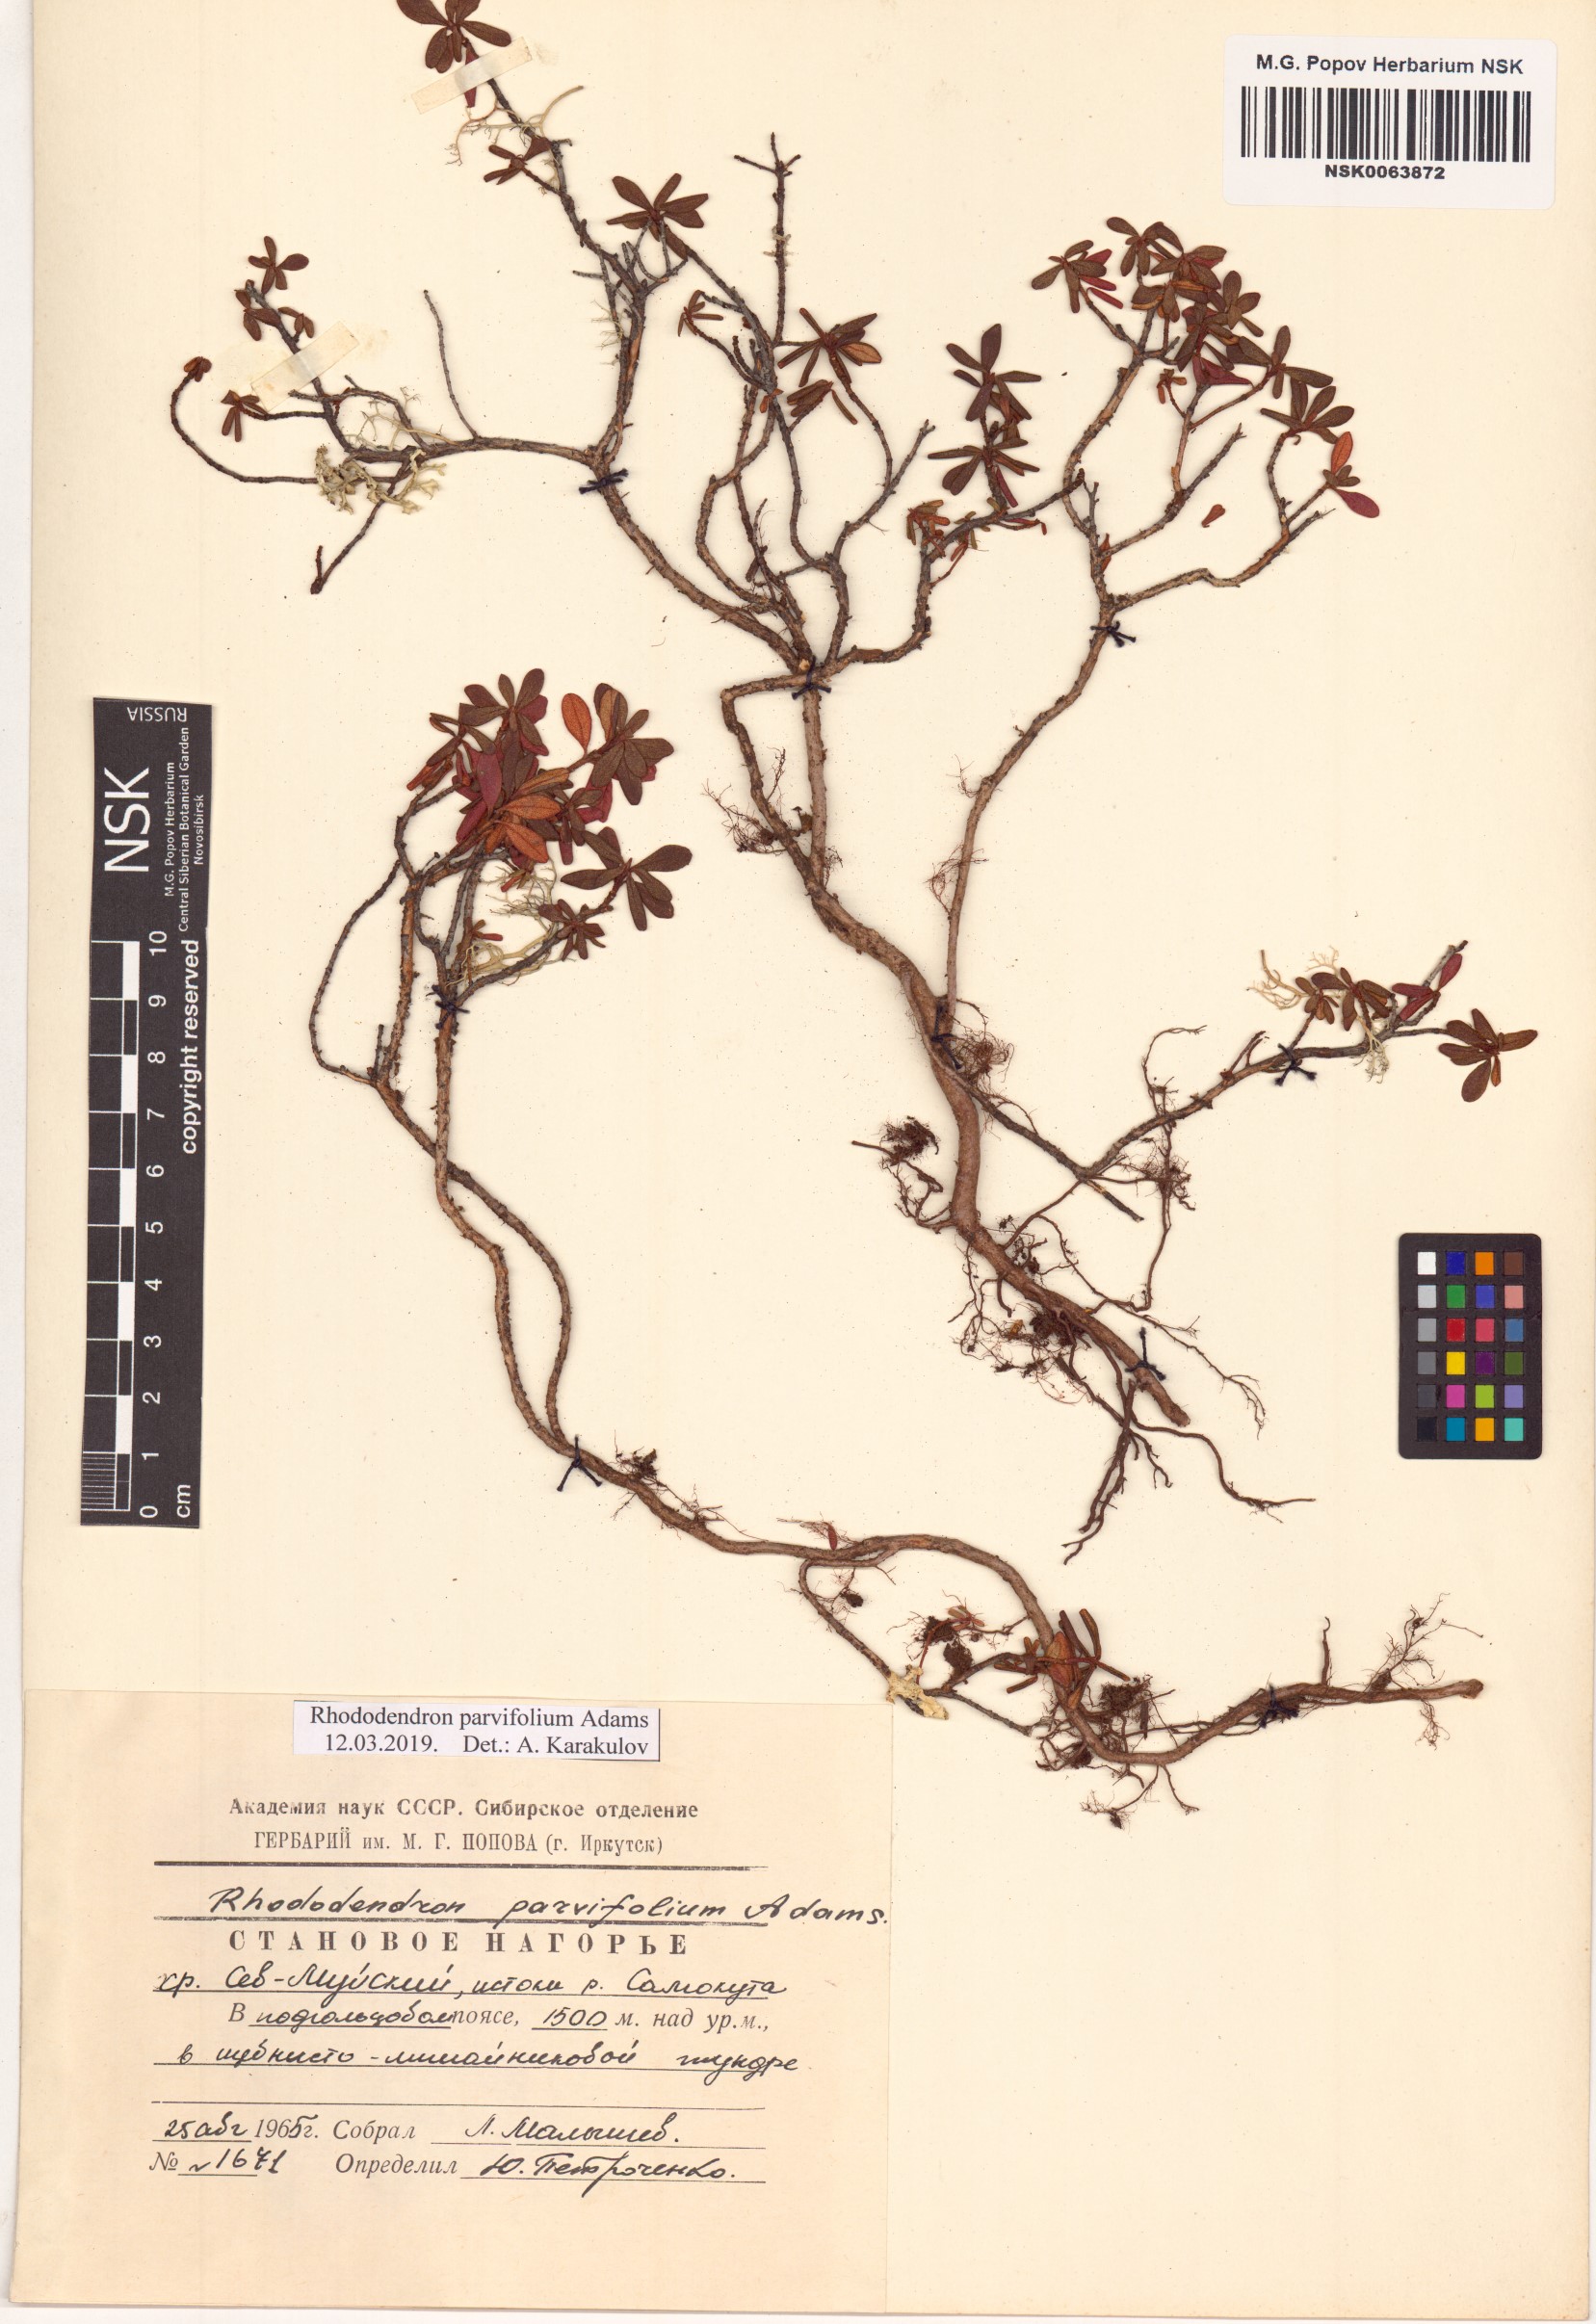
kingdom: Plantae
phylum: Tracheophyta
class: Magnoliopsida
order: Ericales
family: Ericaceae
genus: Rhododendron
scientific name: Rhododendron parvifolium
